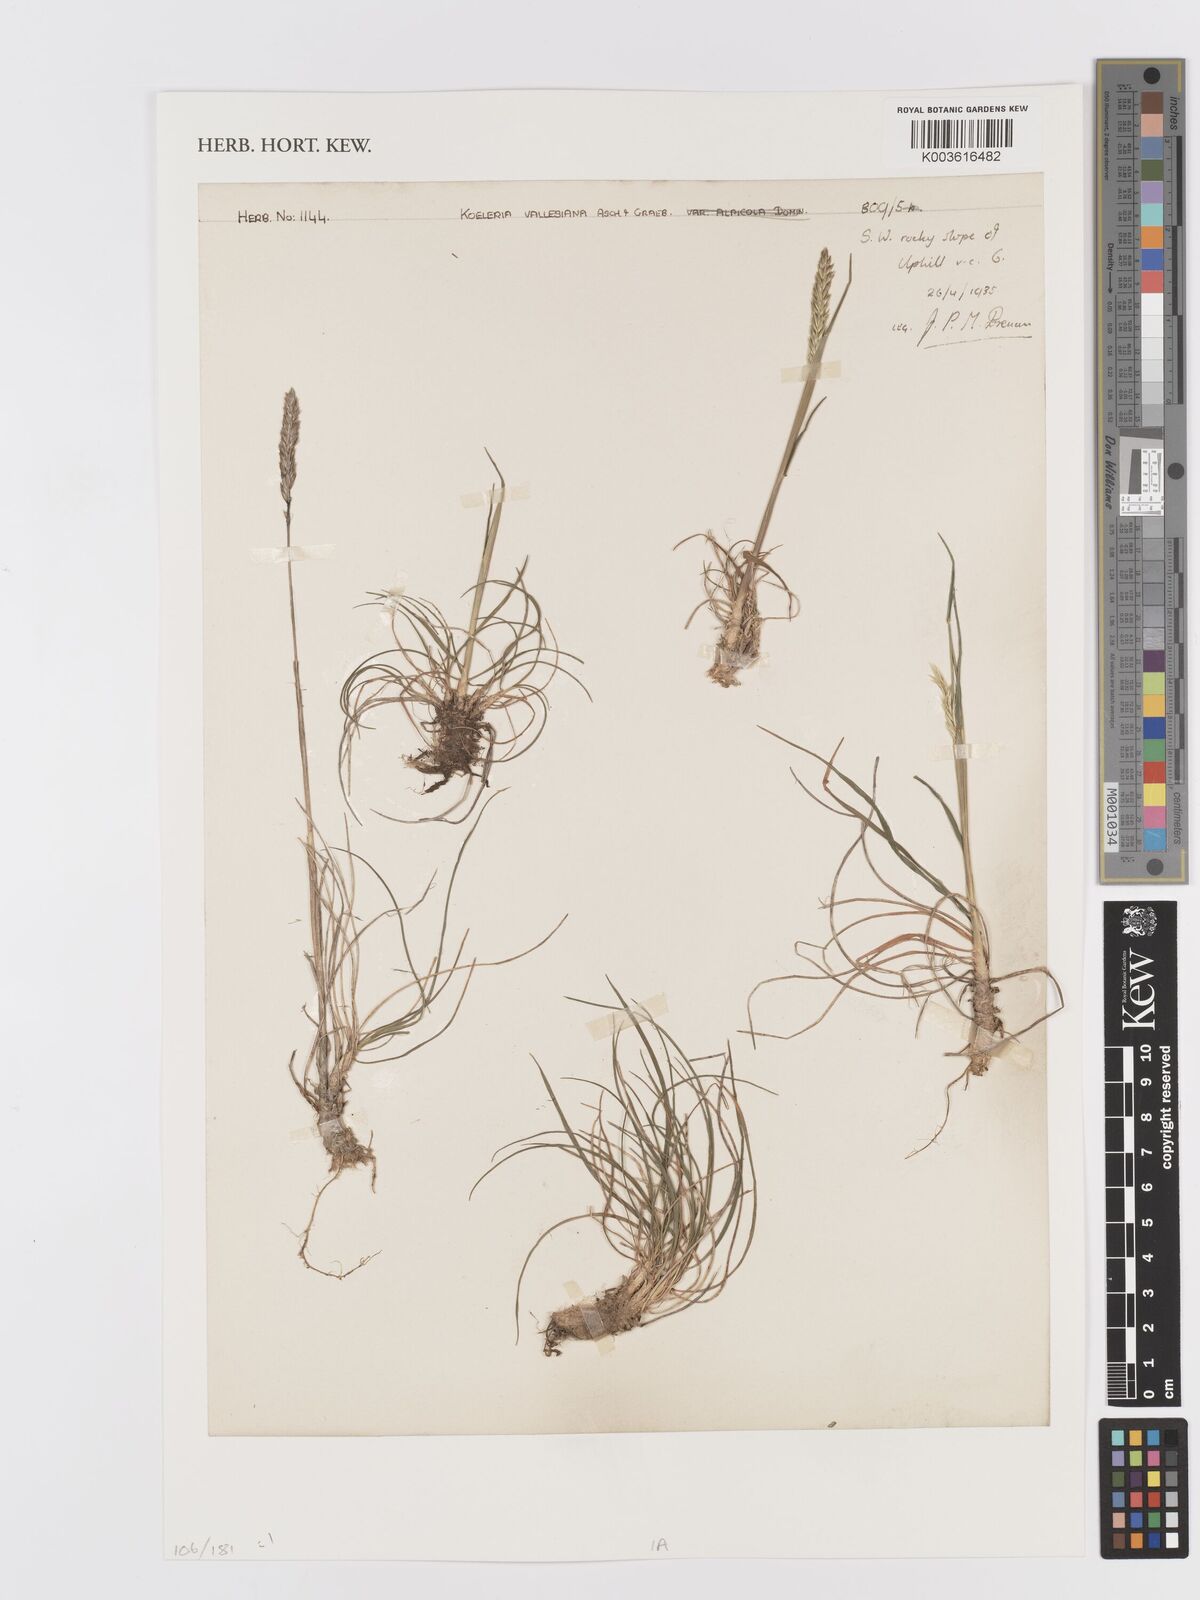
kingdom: Plantae
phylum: Tracheophyta
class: Liliopsida
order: Poales
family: Poaceae
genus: Koeleria
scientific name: Koeleria vallesiana
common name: Somerset hair-grass
